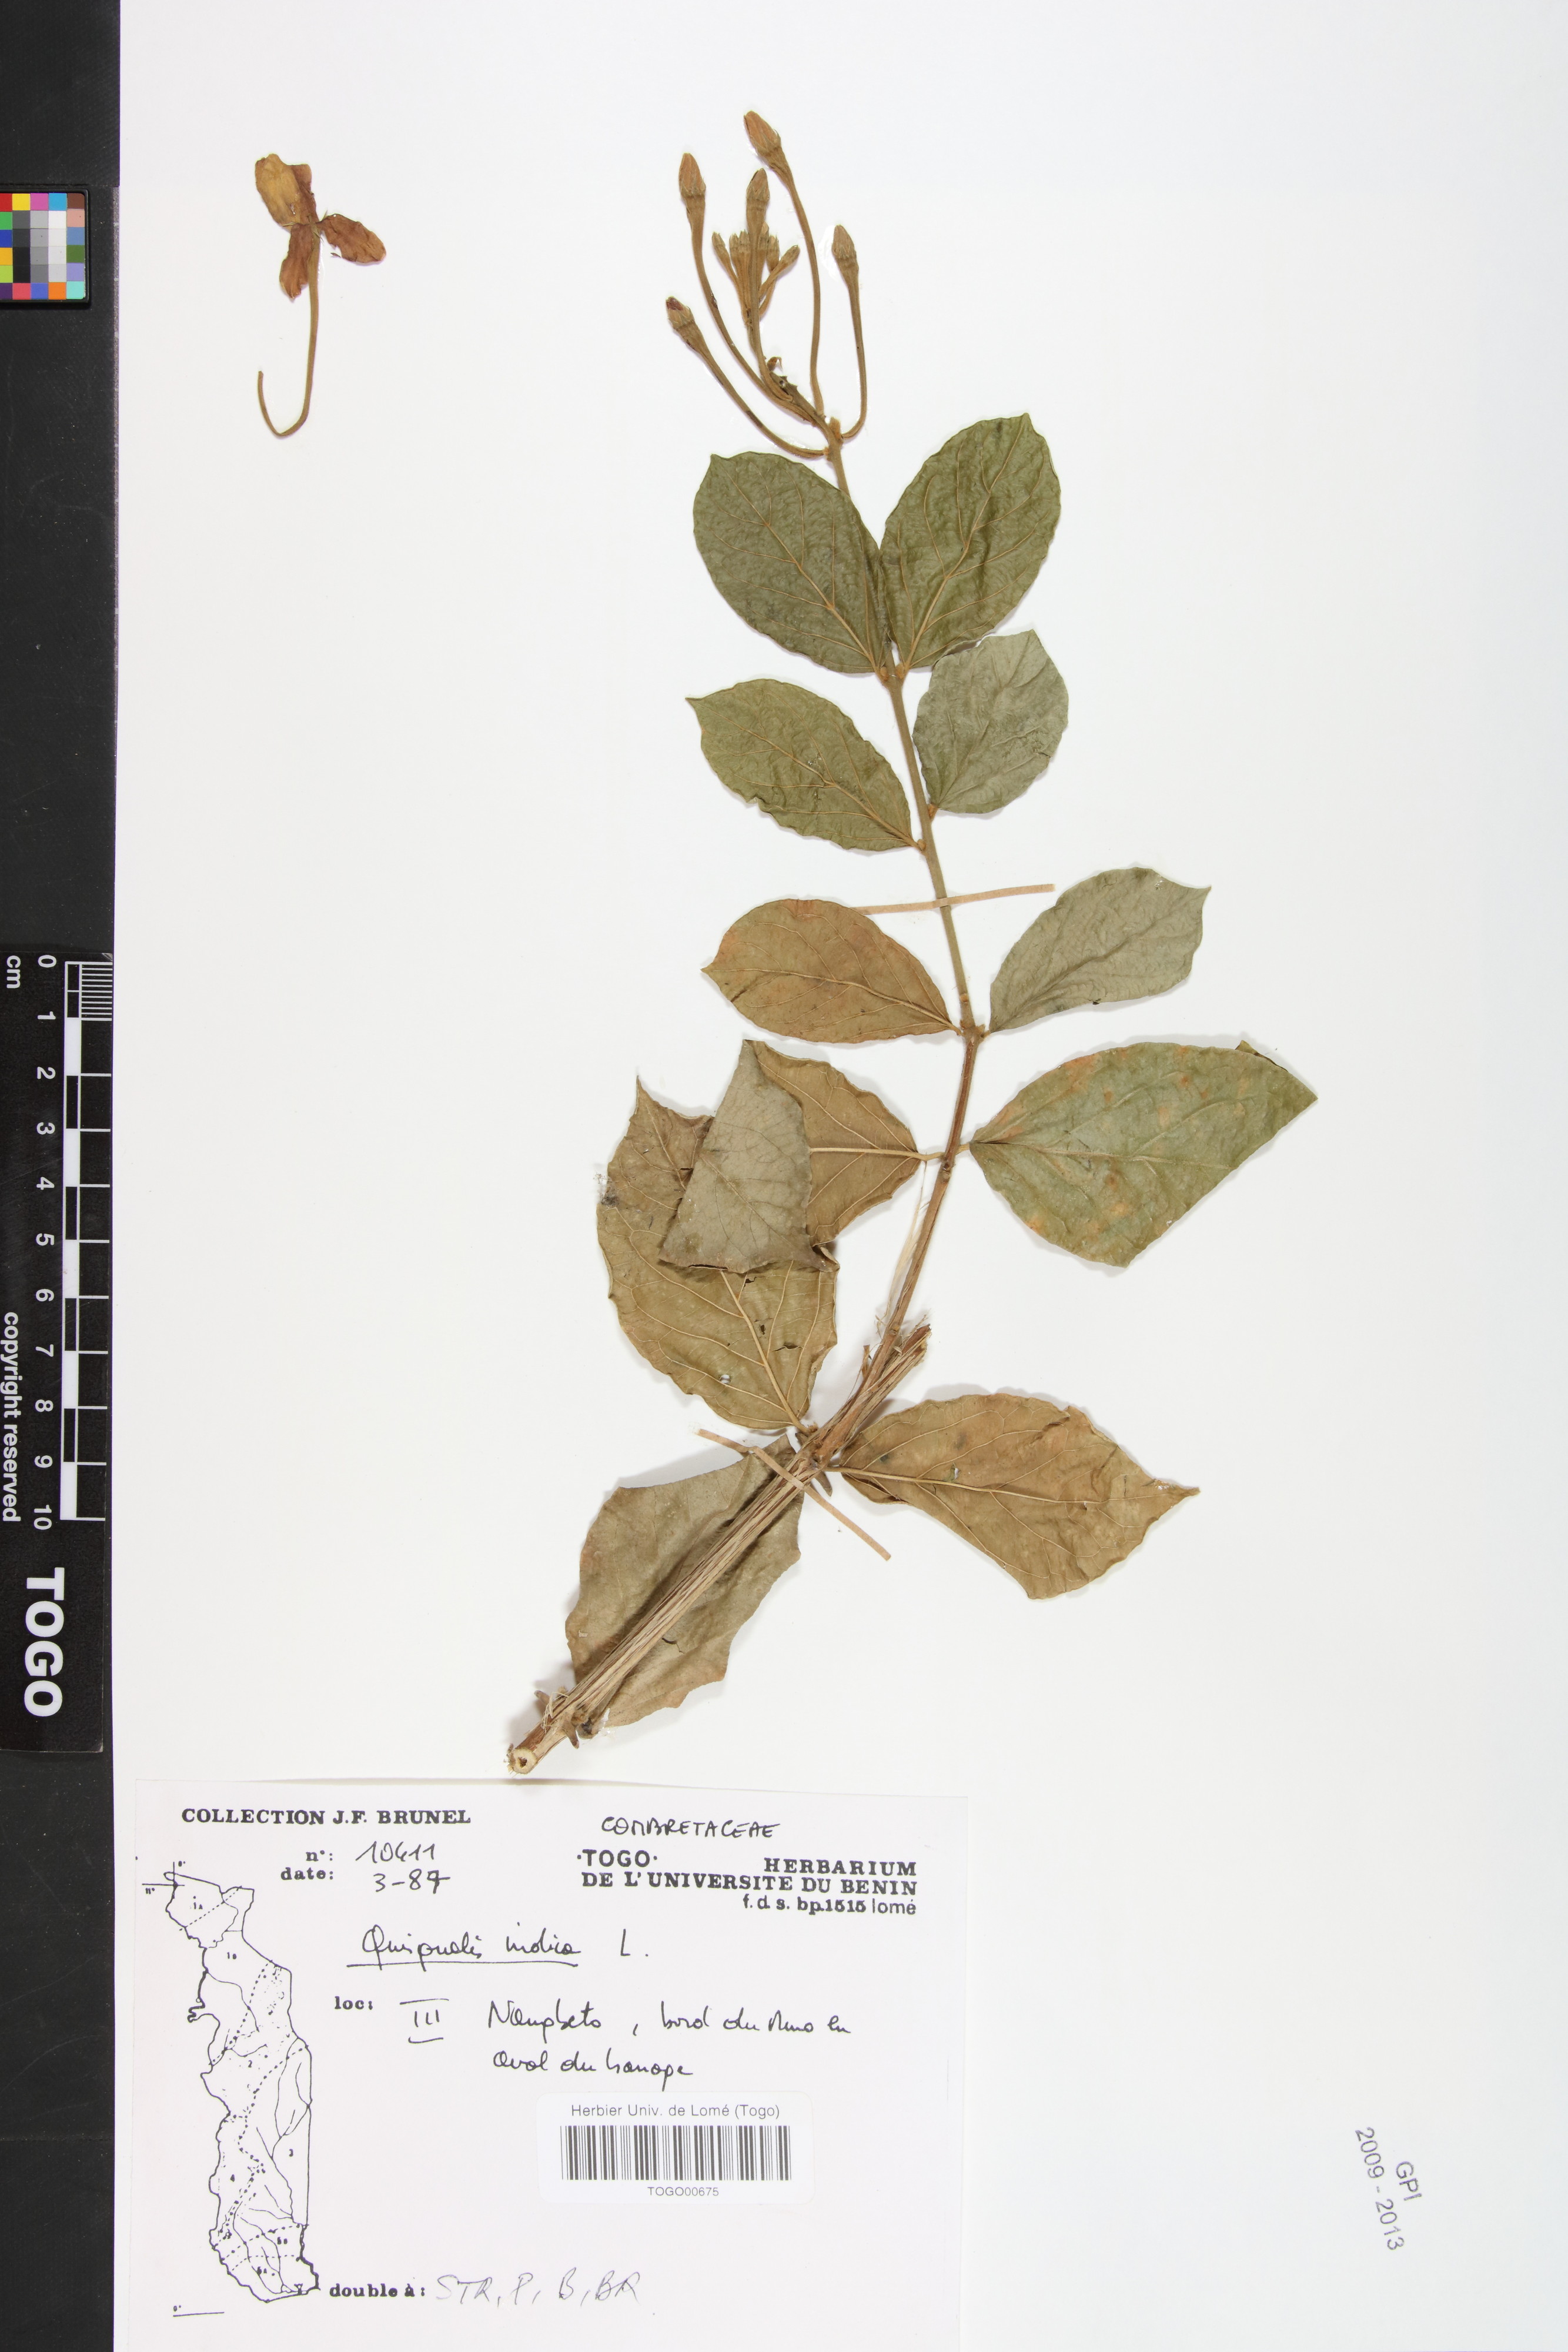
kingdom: Plantae
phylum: Tracheophyta
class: Magnoliopsida
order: Myrtales
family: Combretaceae
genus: Combretum
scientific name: Combretum indicum
